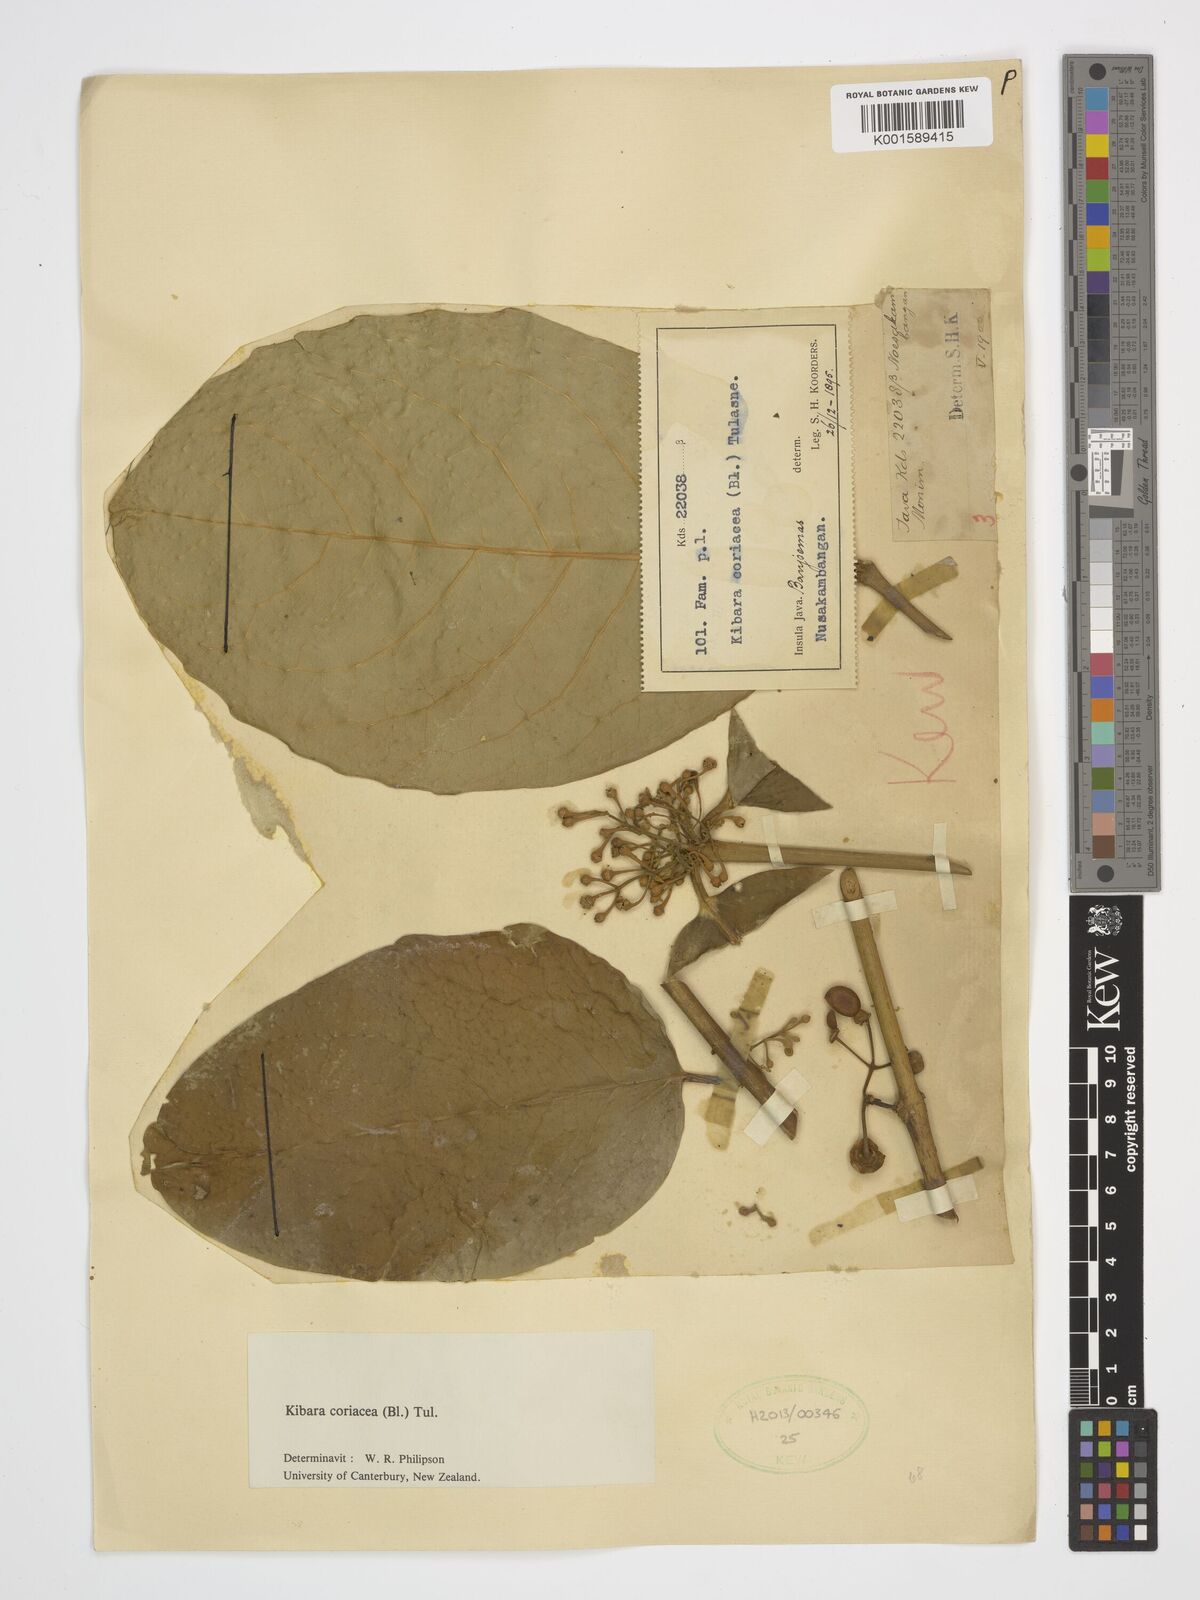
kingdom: Plantae
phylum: Tracheophyta
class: Magnoliopsida
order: Laurales
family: Monimiaceae
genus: Kibara
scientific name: Kibara coriacea
